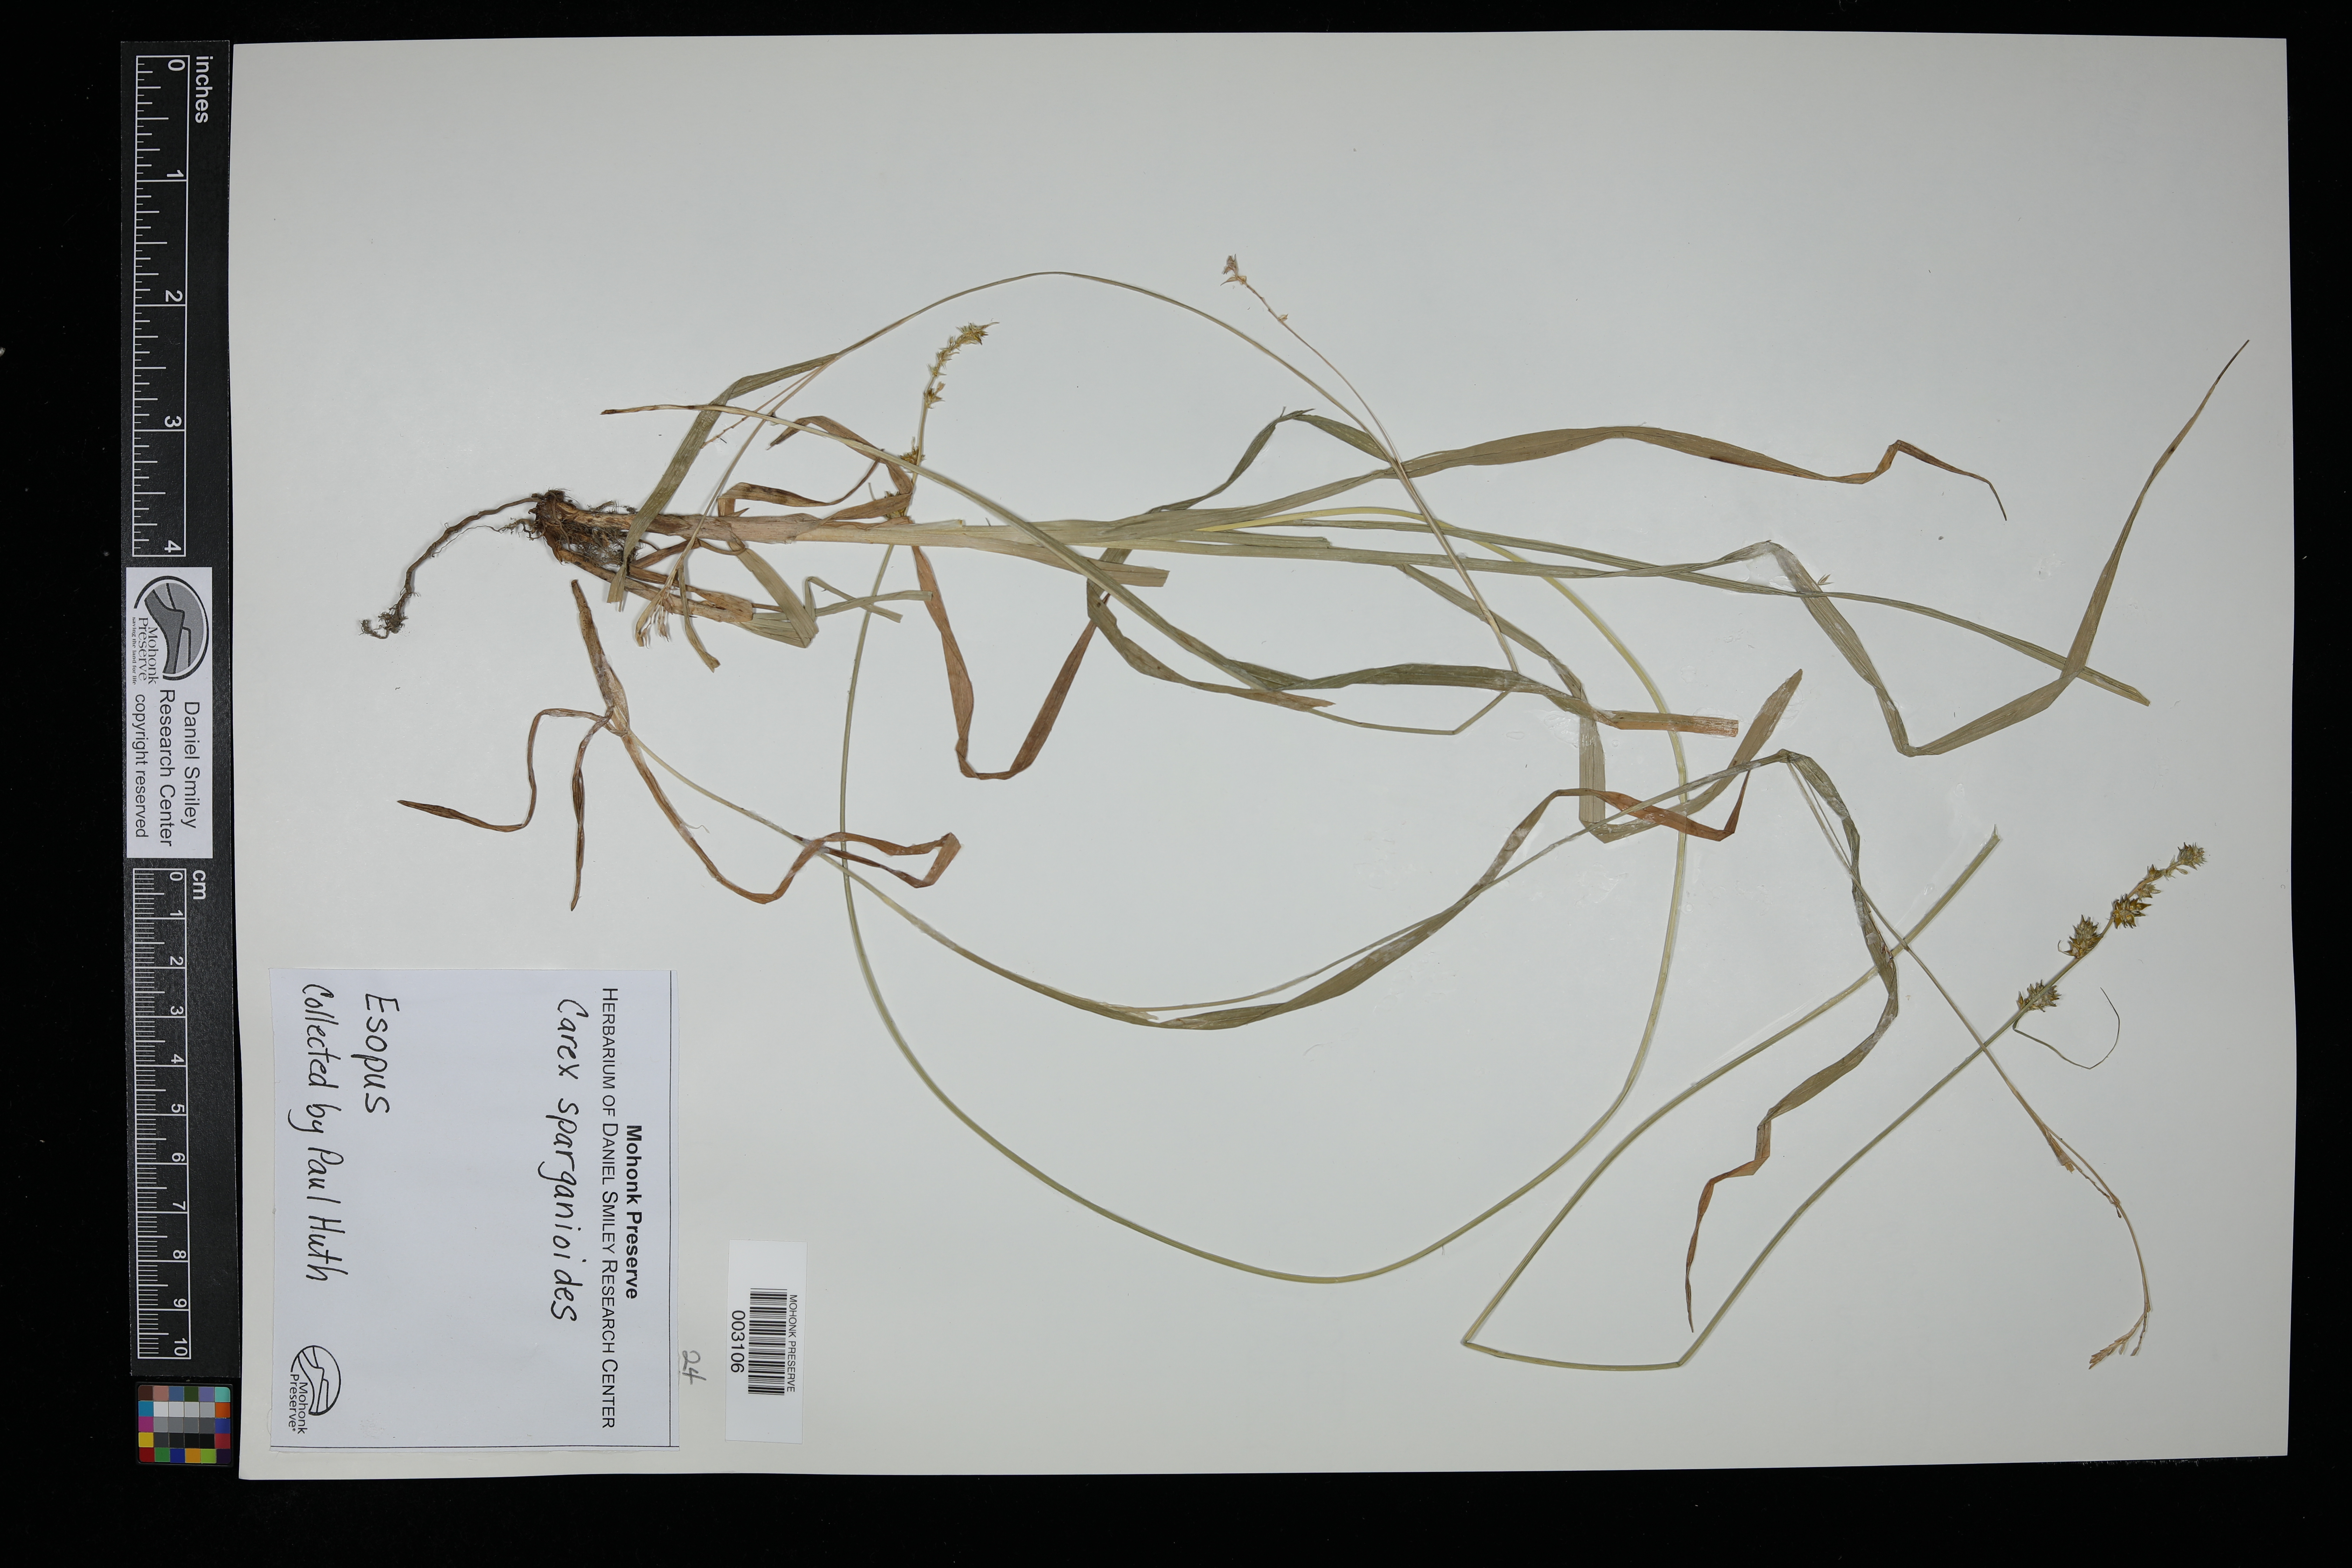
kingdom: Plantae
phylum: Tracheophyta
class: Liliopsida
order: Poales
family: Cyperaceae
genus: Carex
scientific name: Carex sparganioides
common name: Burreed sedge
